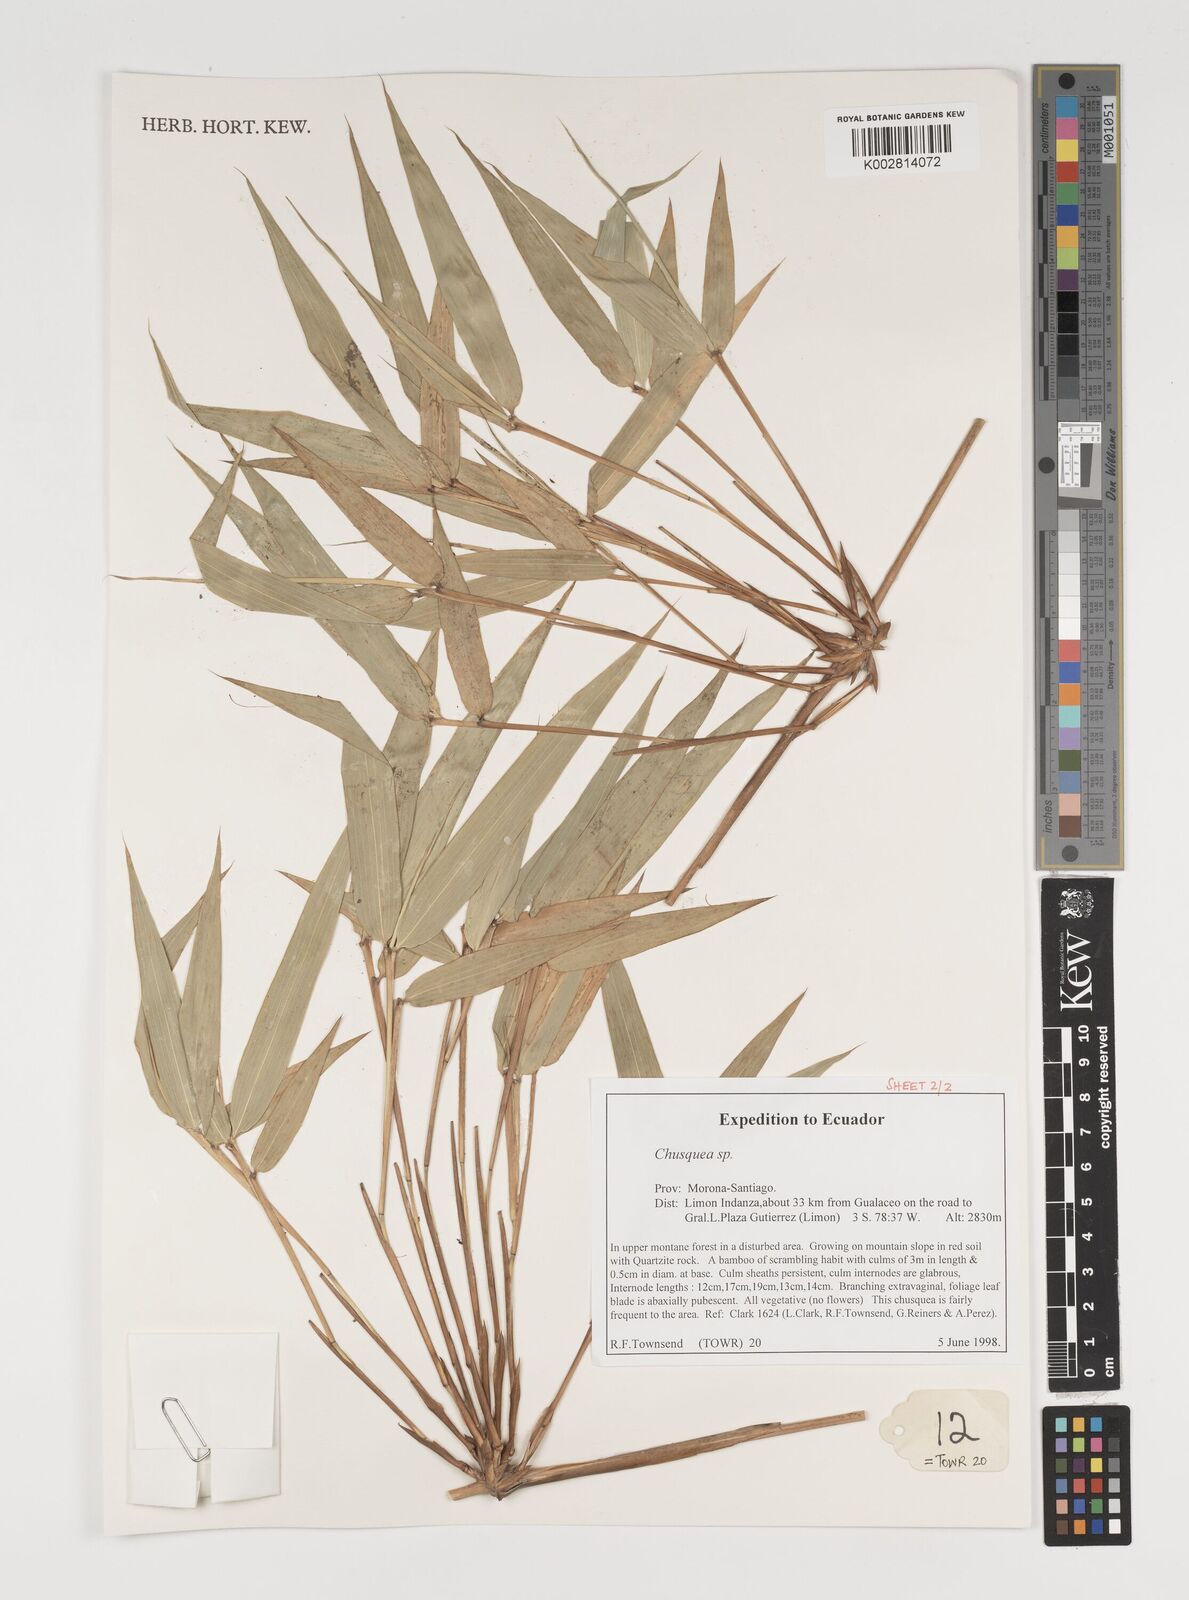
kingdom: Plantae
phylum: Tracheophyta
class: Liliopsida
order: Poales
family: Poaceae
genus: Chusquea
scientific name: Chusquea
